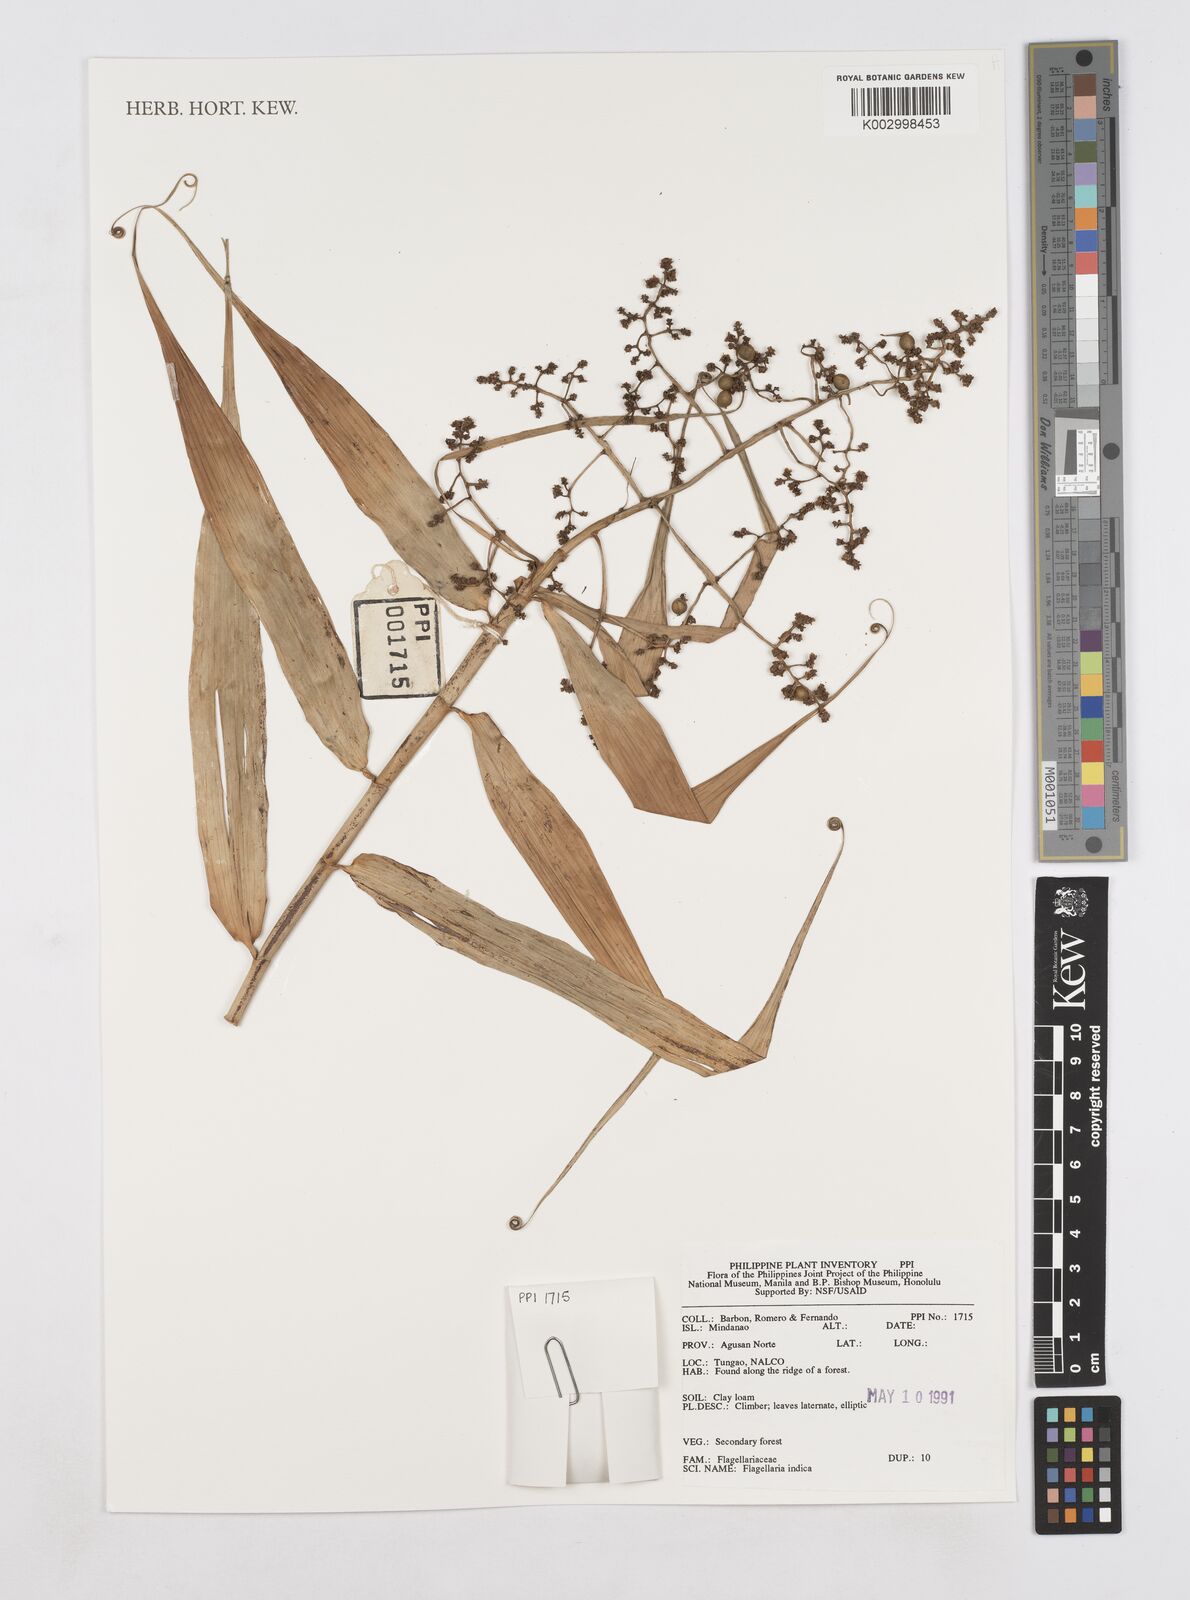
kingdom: Plantae
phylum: Tracheophyta
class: Liliopsida
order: Poales
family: Flagellariaceae
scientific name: Flagellariaceae
